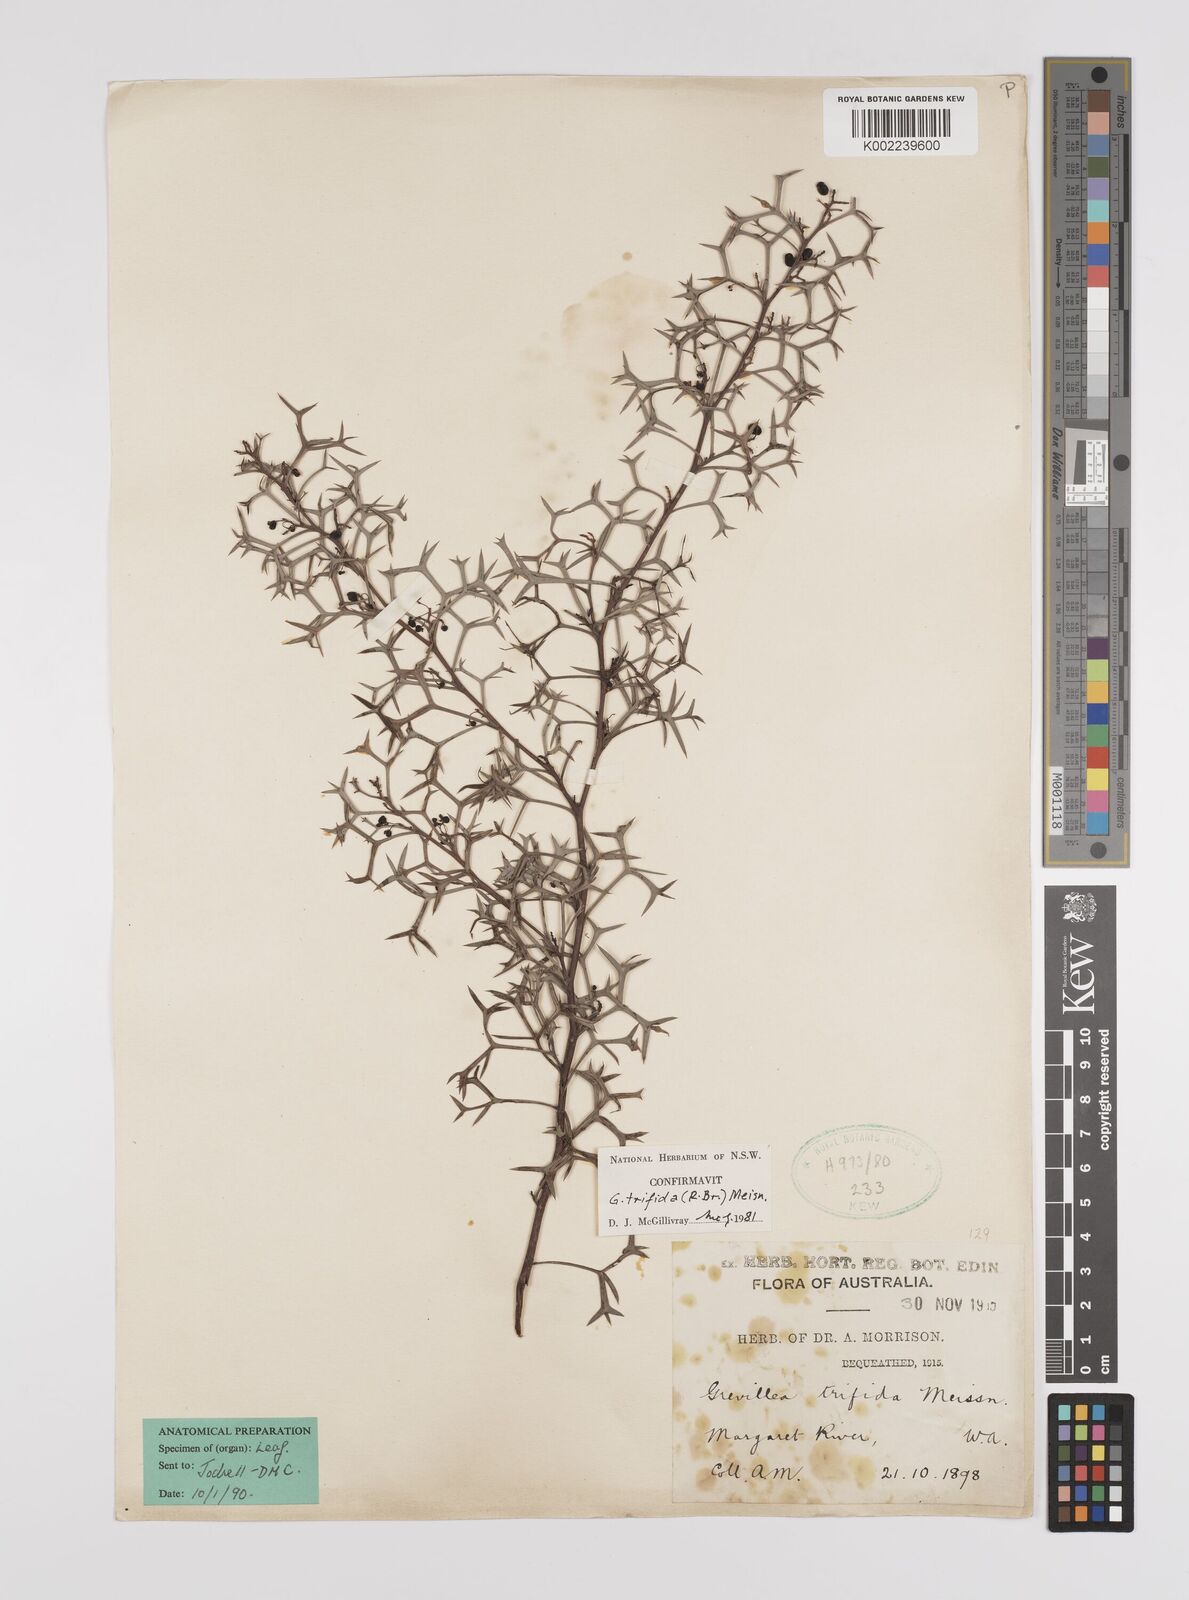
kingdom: Plantae
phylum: Tracheophyta
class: Magnoliopsida
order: Proteales
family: Proteaceae
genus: Grevillea
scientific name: Grevillea trifida
